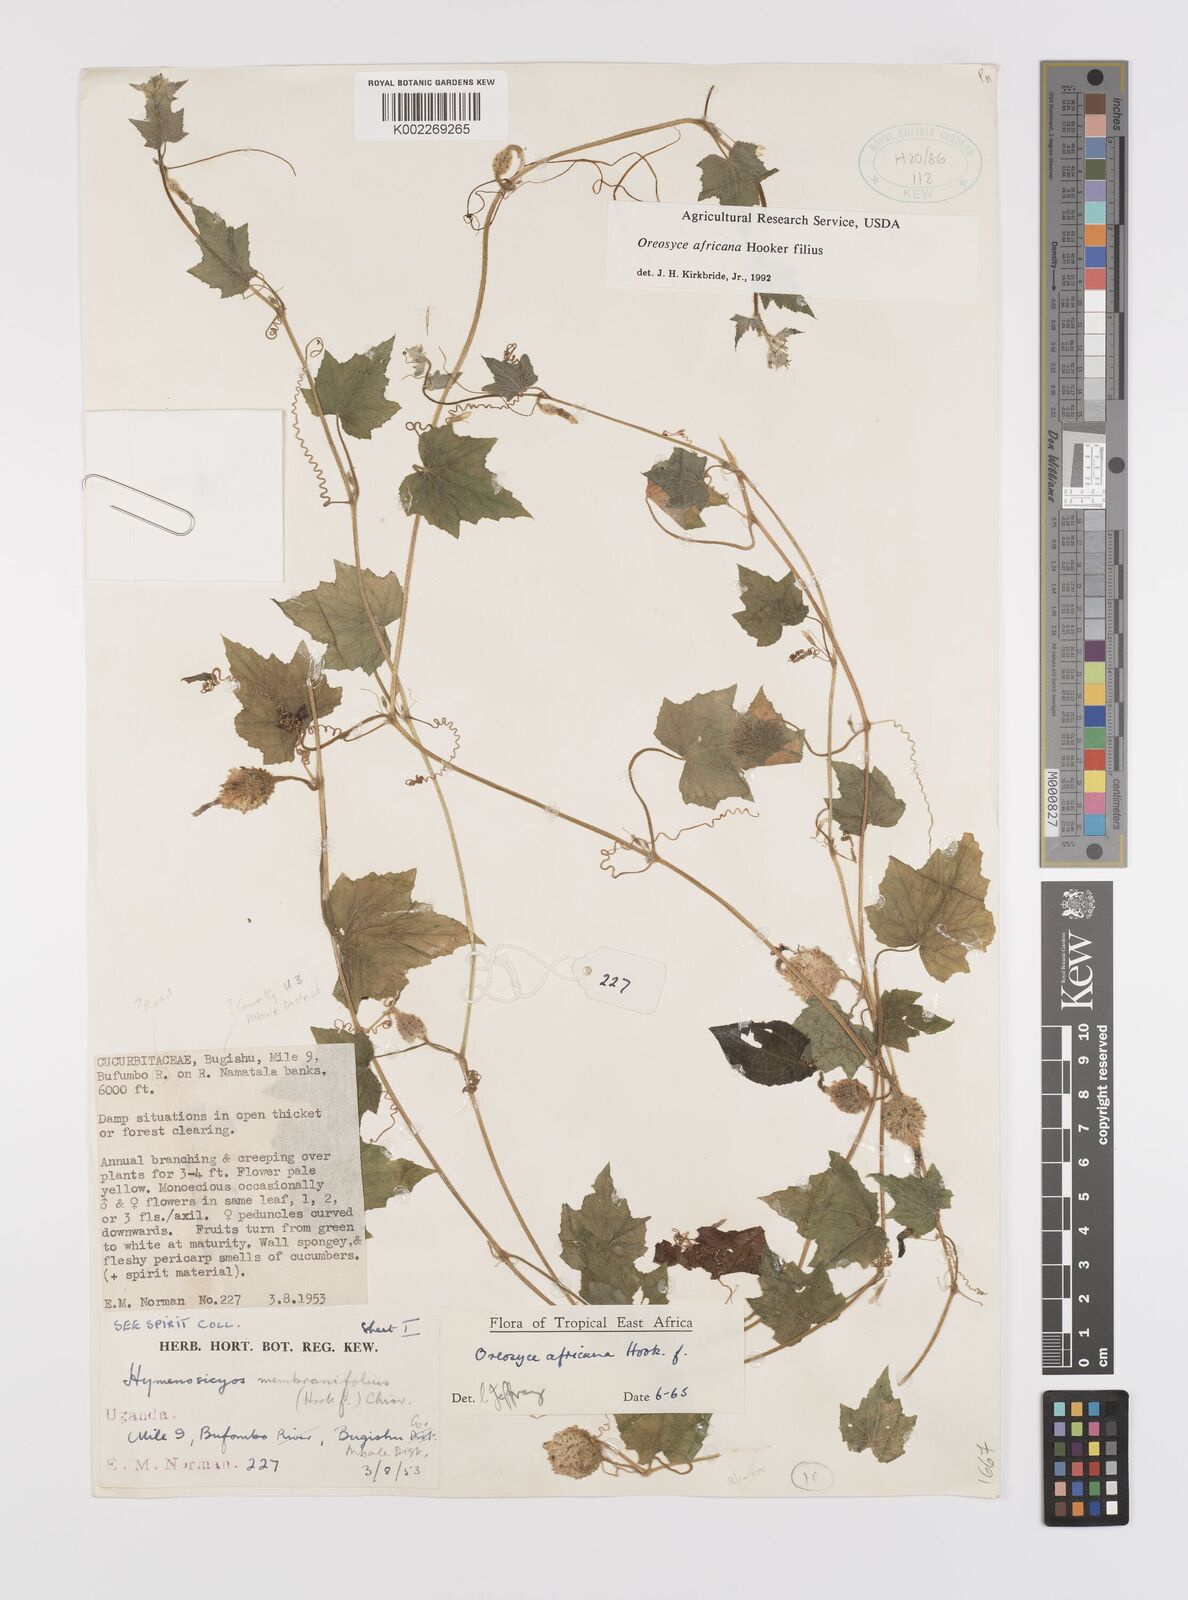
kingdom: Plantae
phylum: Tracheophyta
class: Magnoliopsida
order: Cucurbitales
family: Cucurbitaceae
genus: Cucumis
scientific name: Cucumis oreosyce
